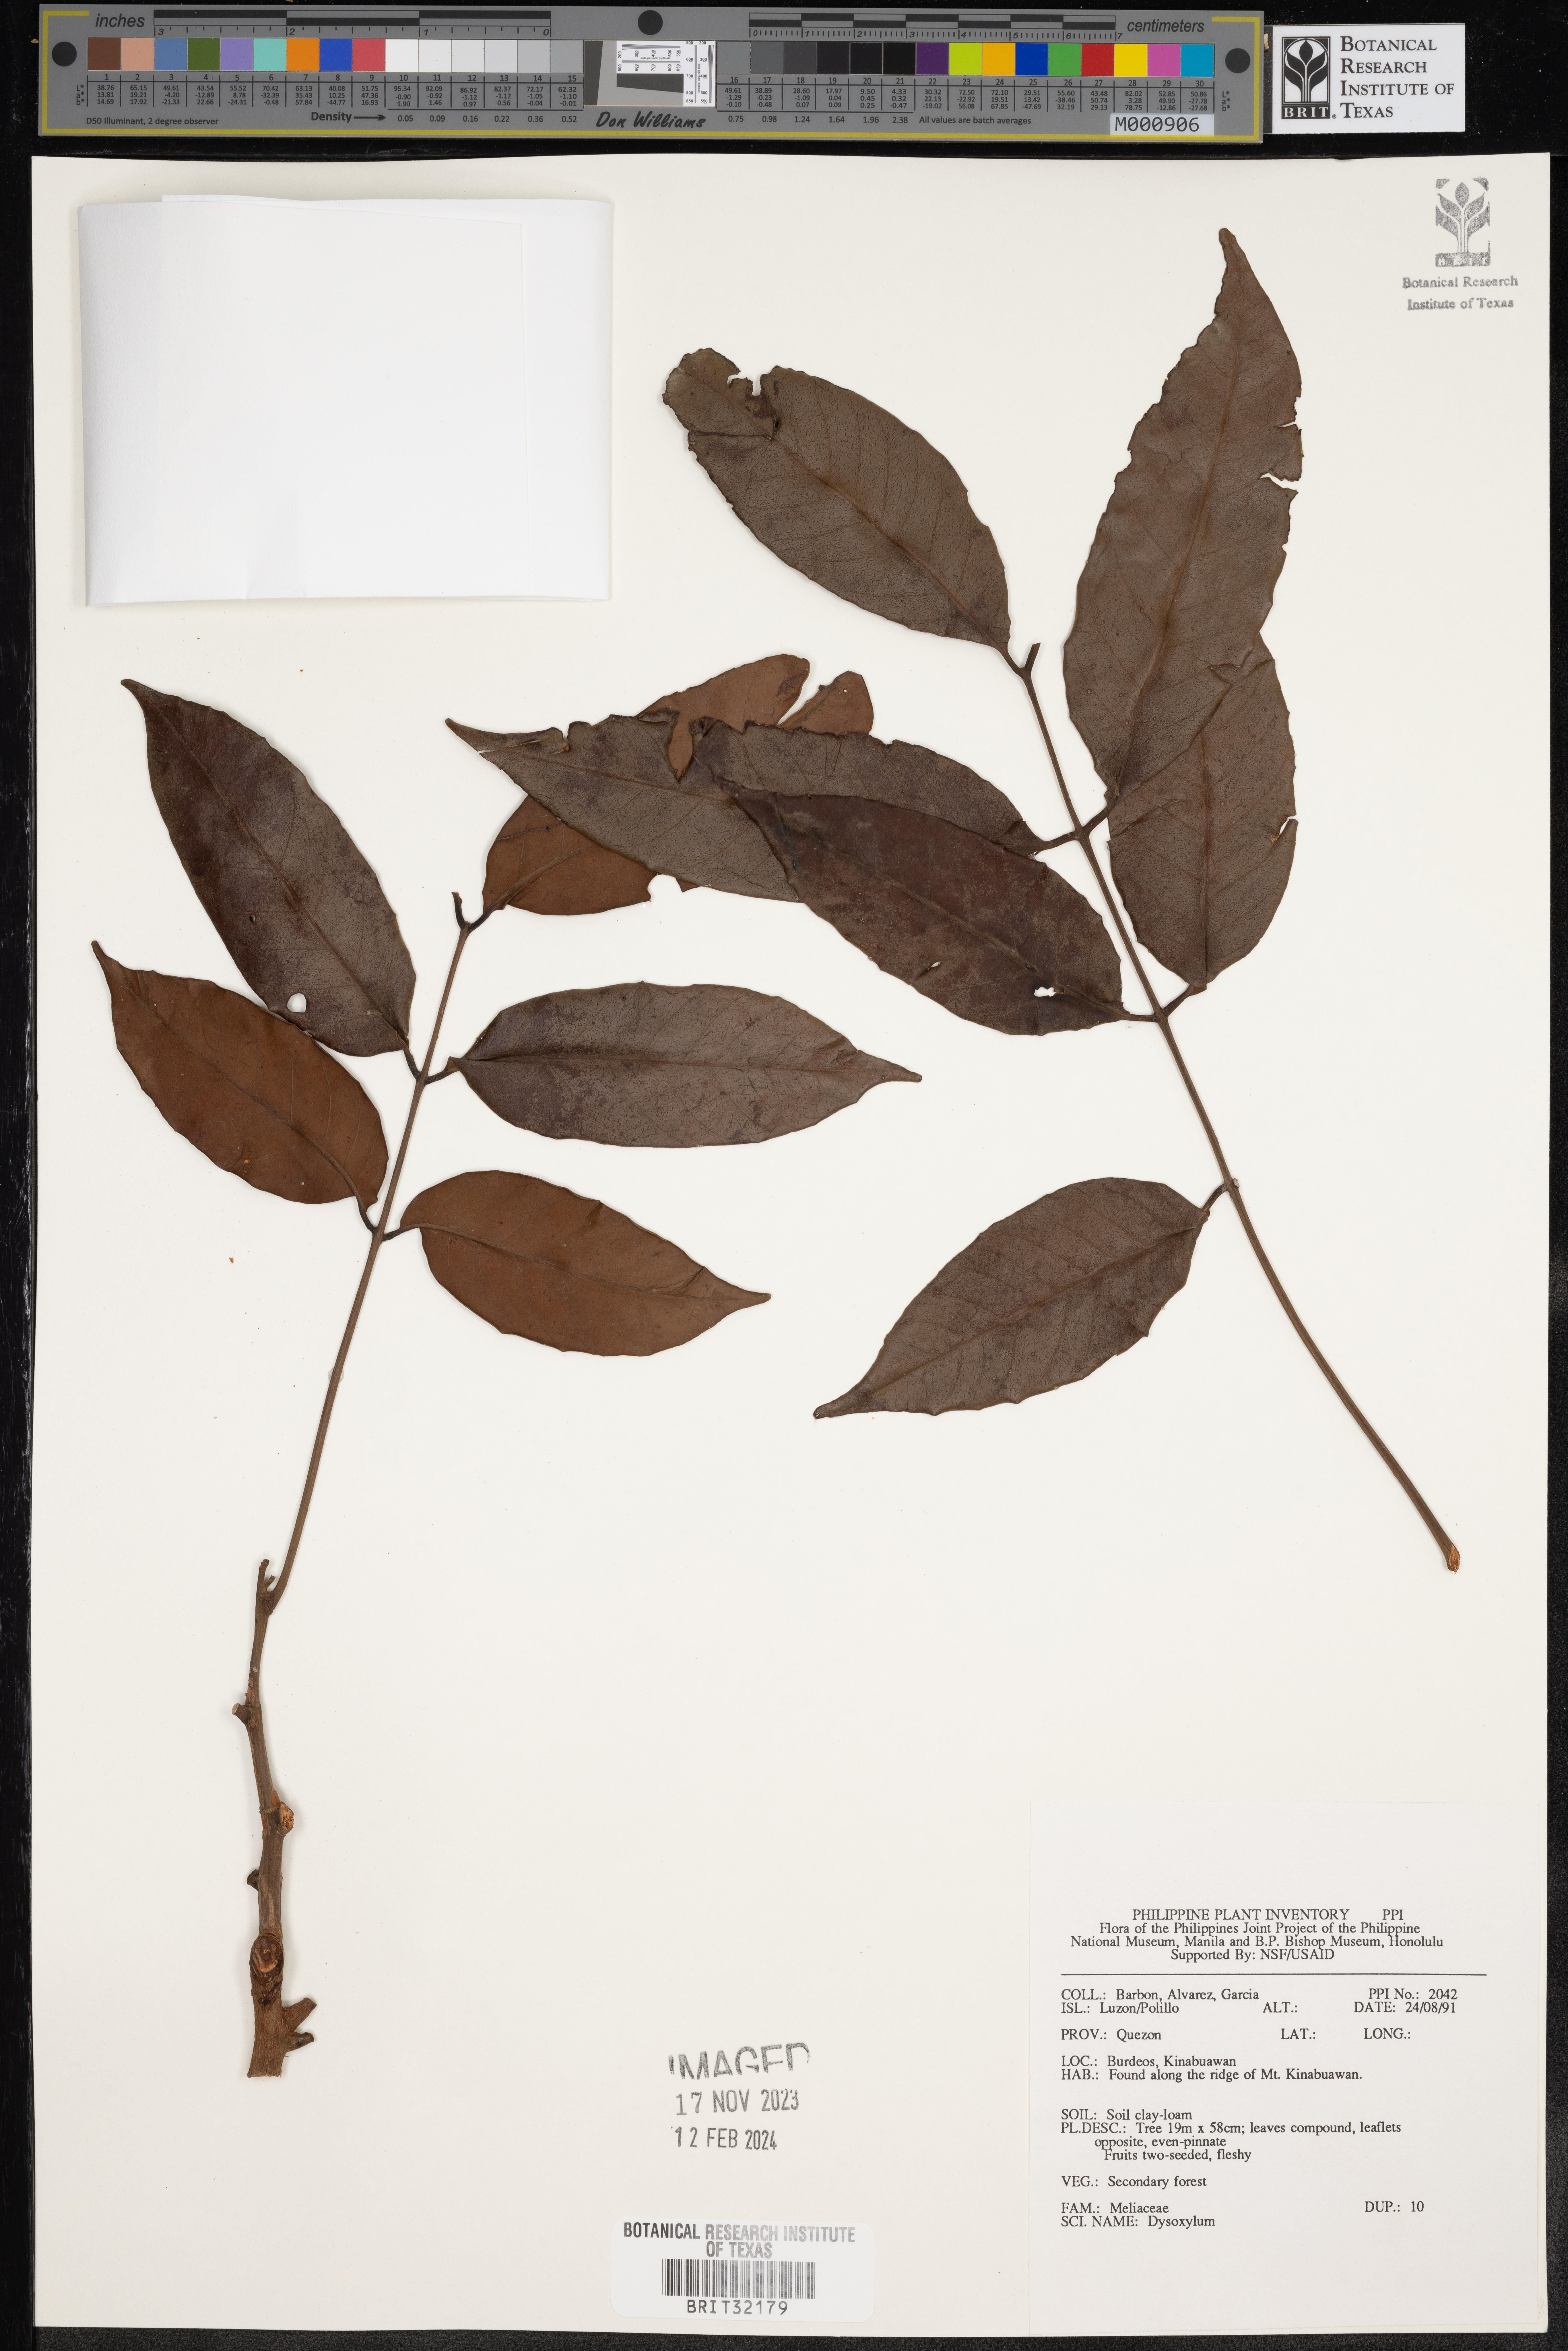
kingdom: Plantae
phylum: Tracheophyta
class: Magnoliopsida
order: Sapindales
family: Meliaceae
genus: Dysoxylum
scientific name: Dysoxylum
